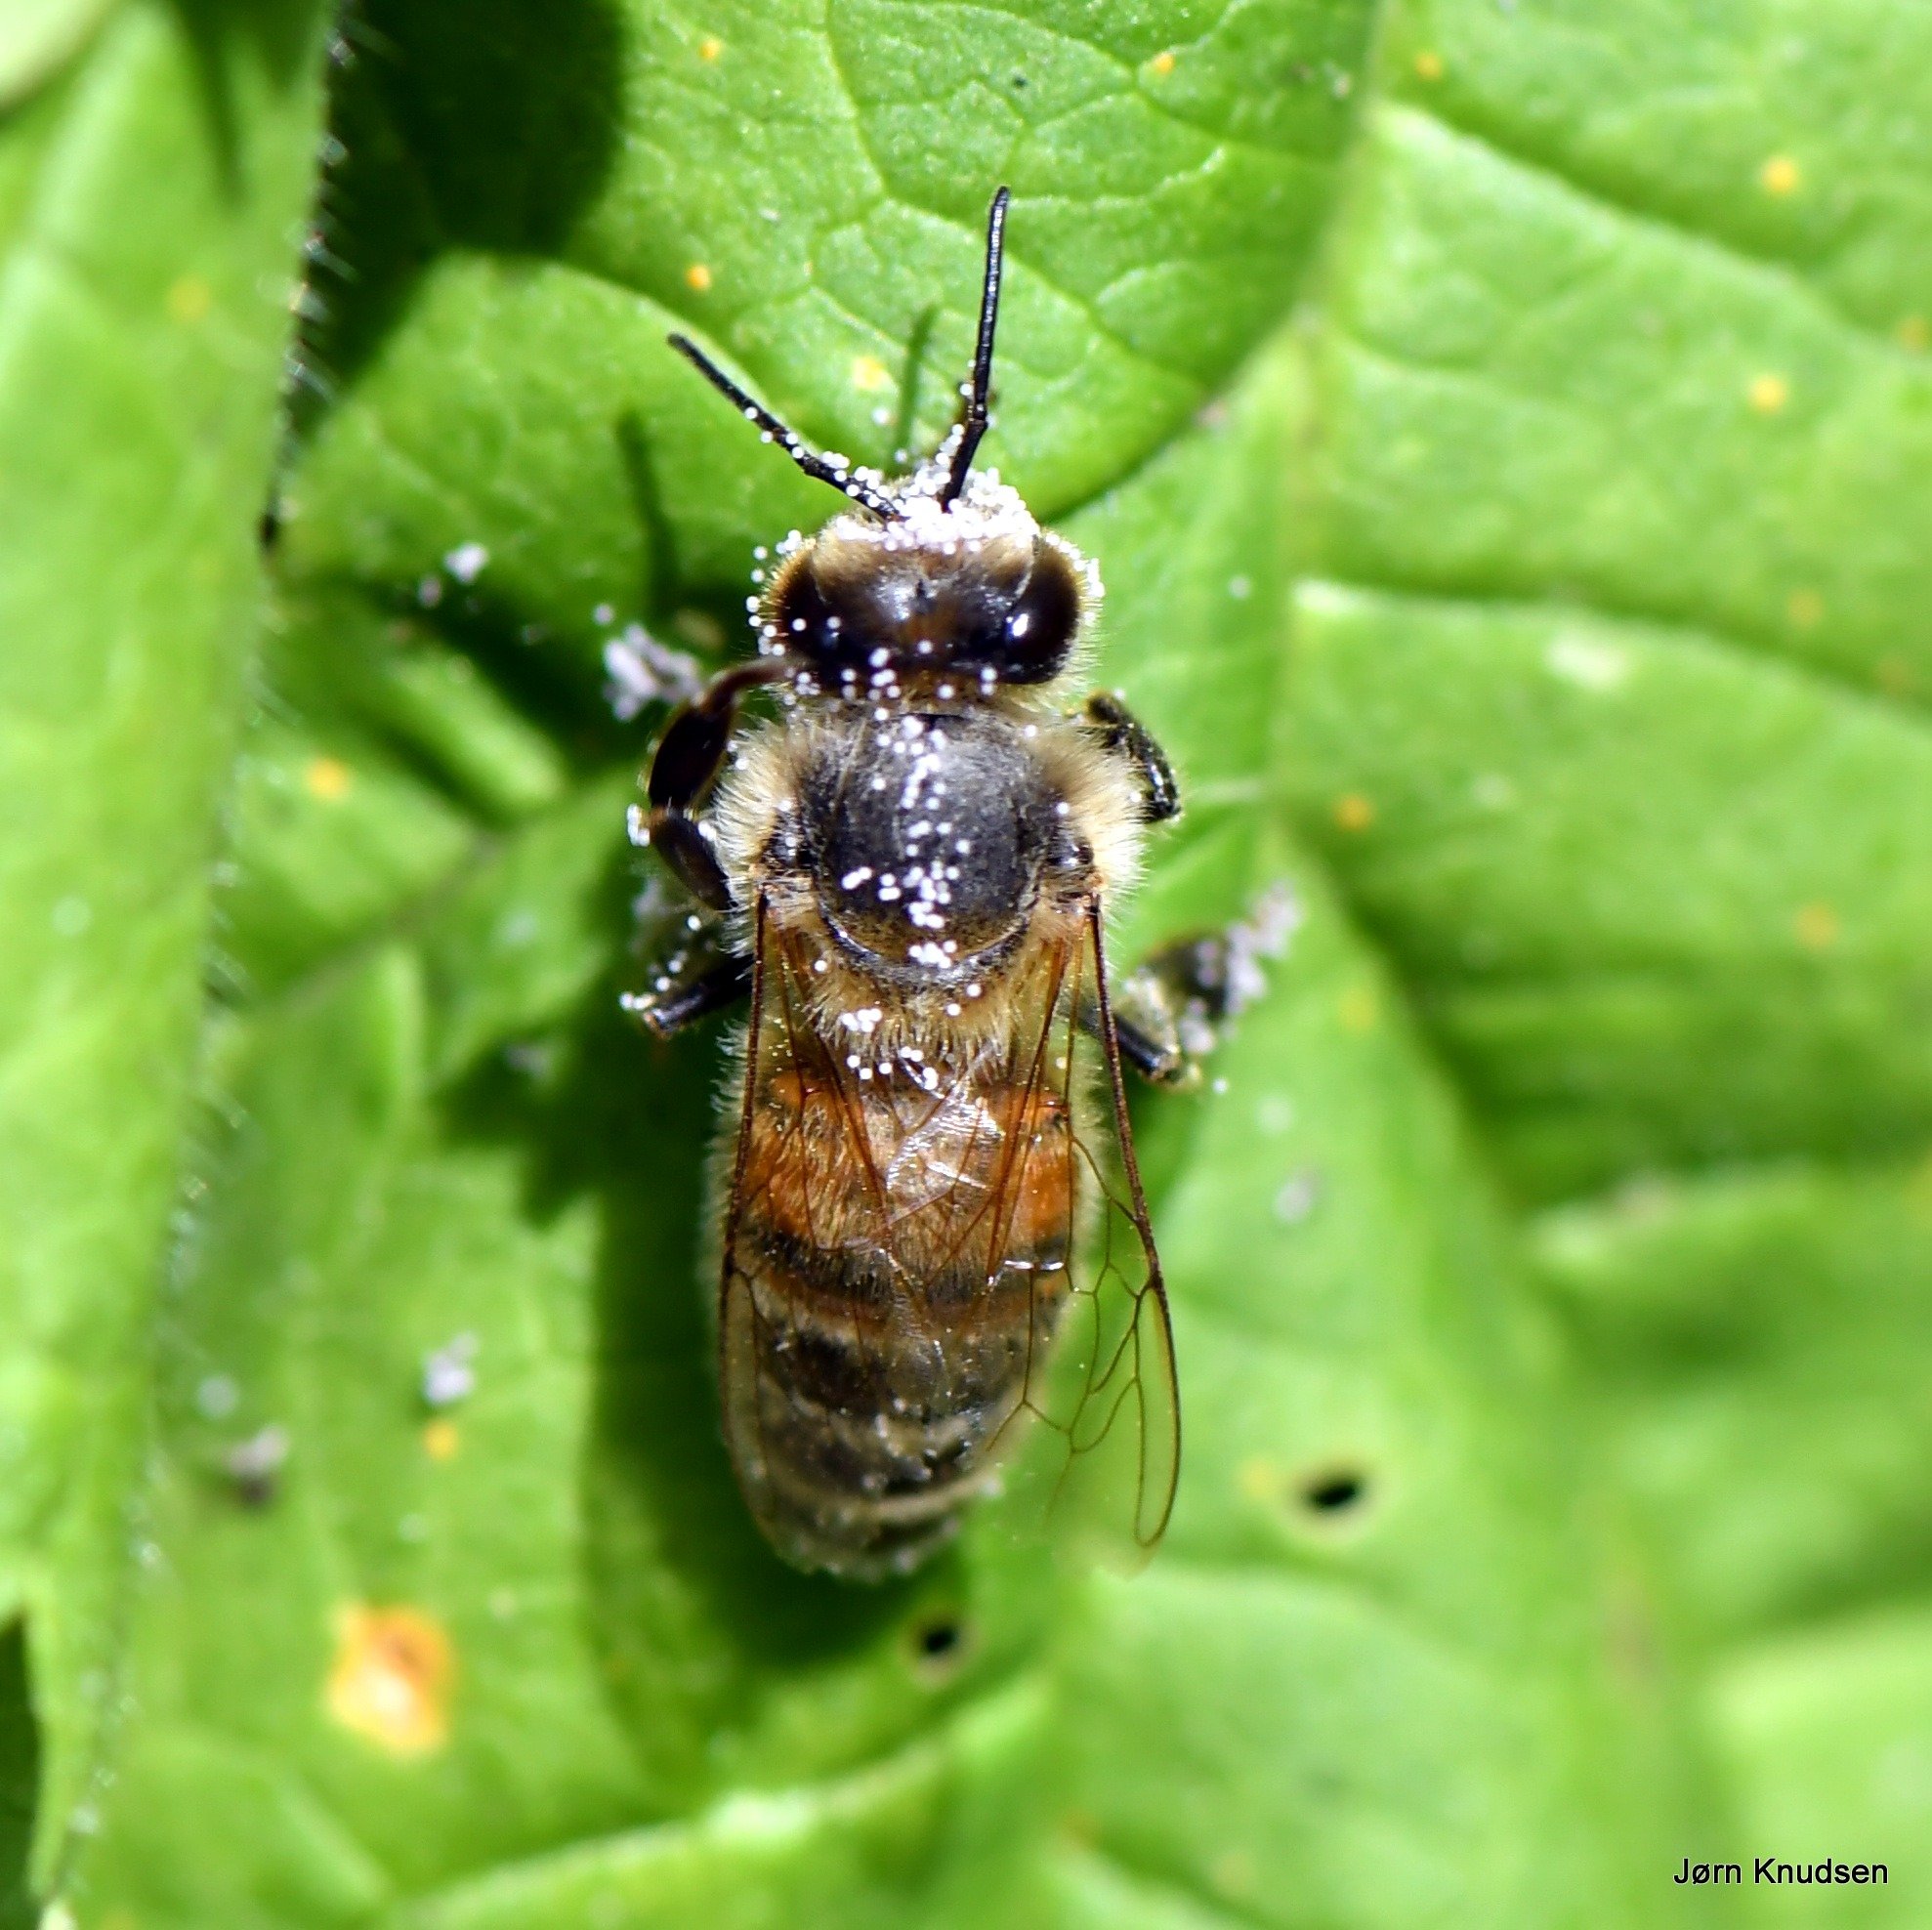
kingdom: Animalia
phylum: Arthropoda
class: Insecta
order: Hymenoptera
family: Apidae
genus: Apis
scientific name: Apis mellifera
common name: Honningbi
